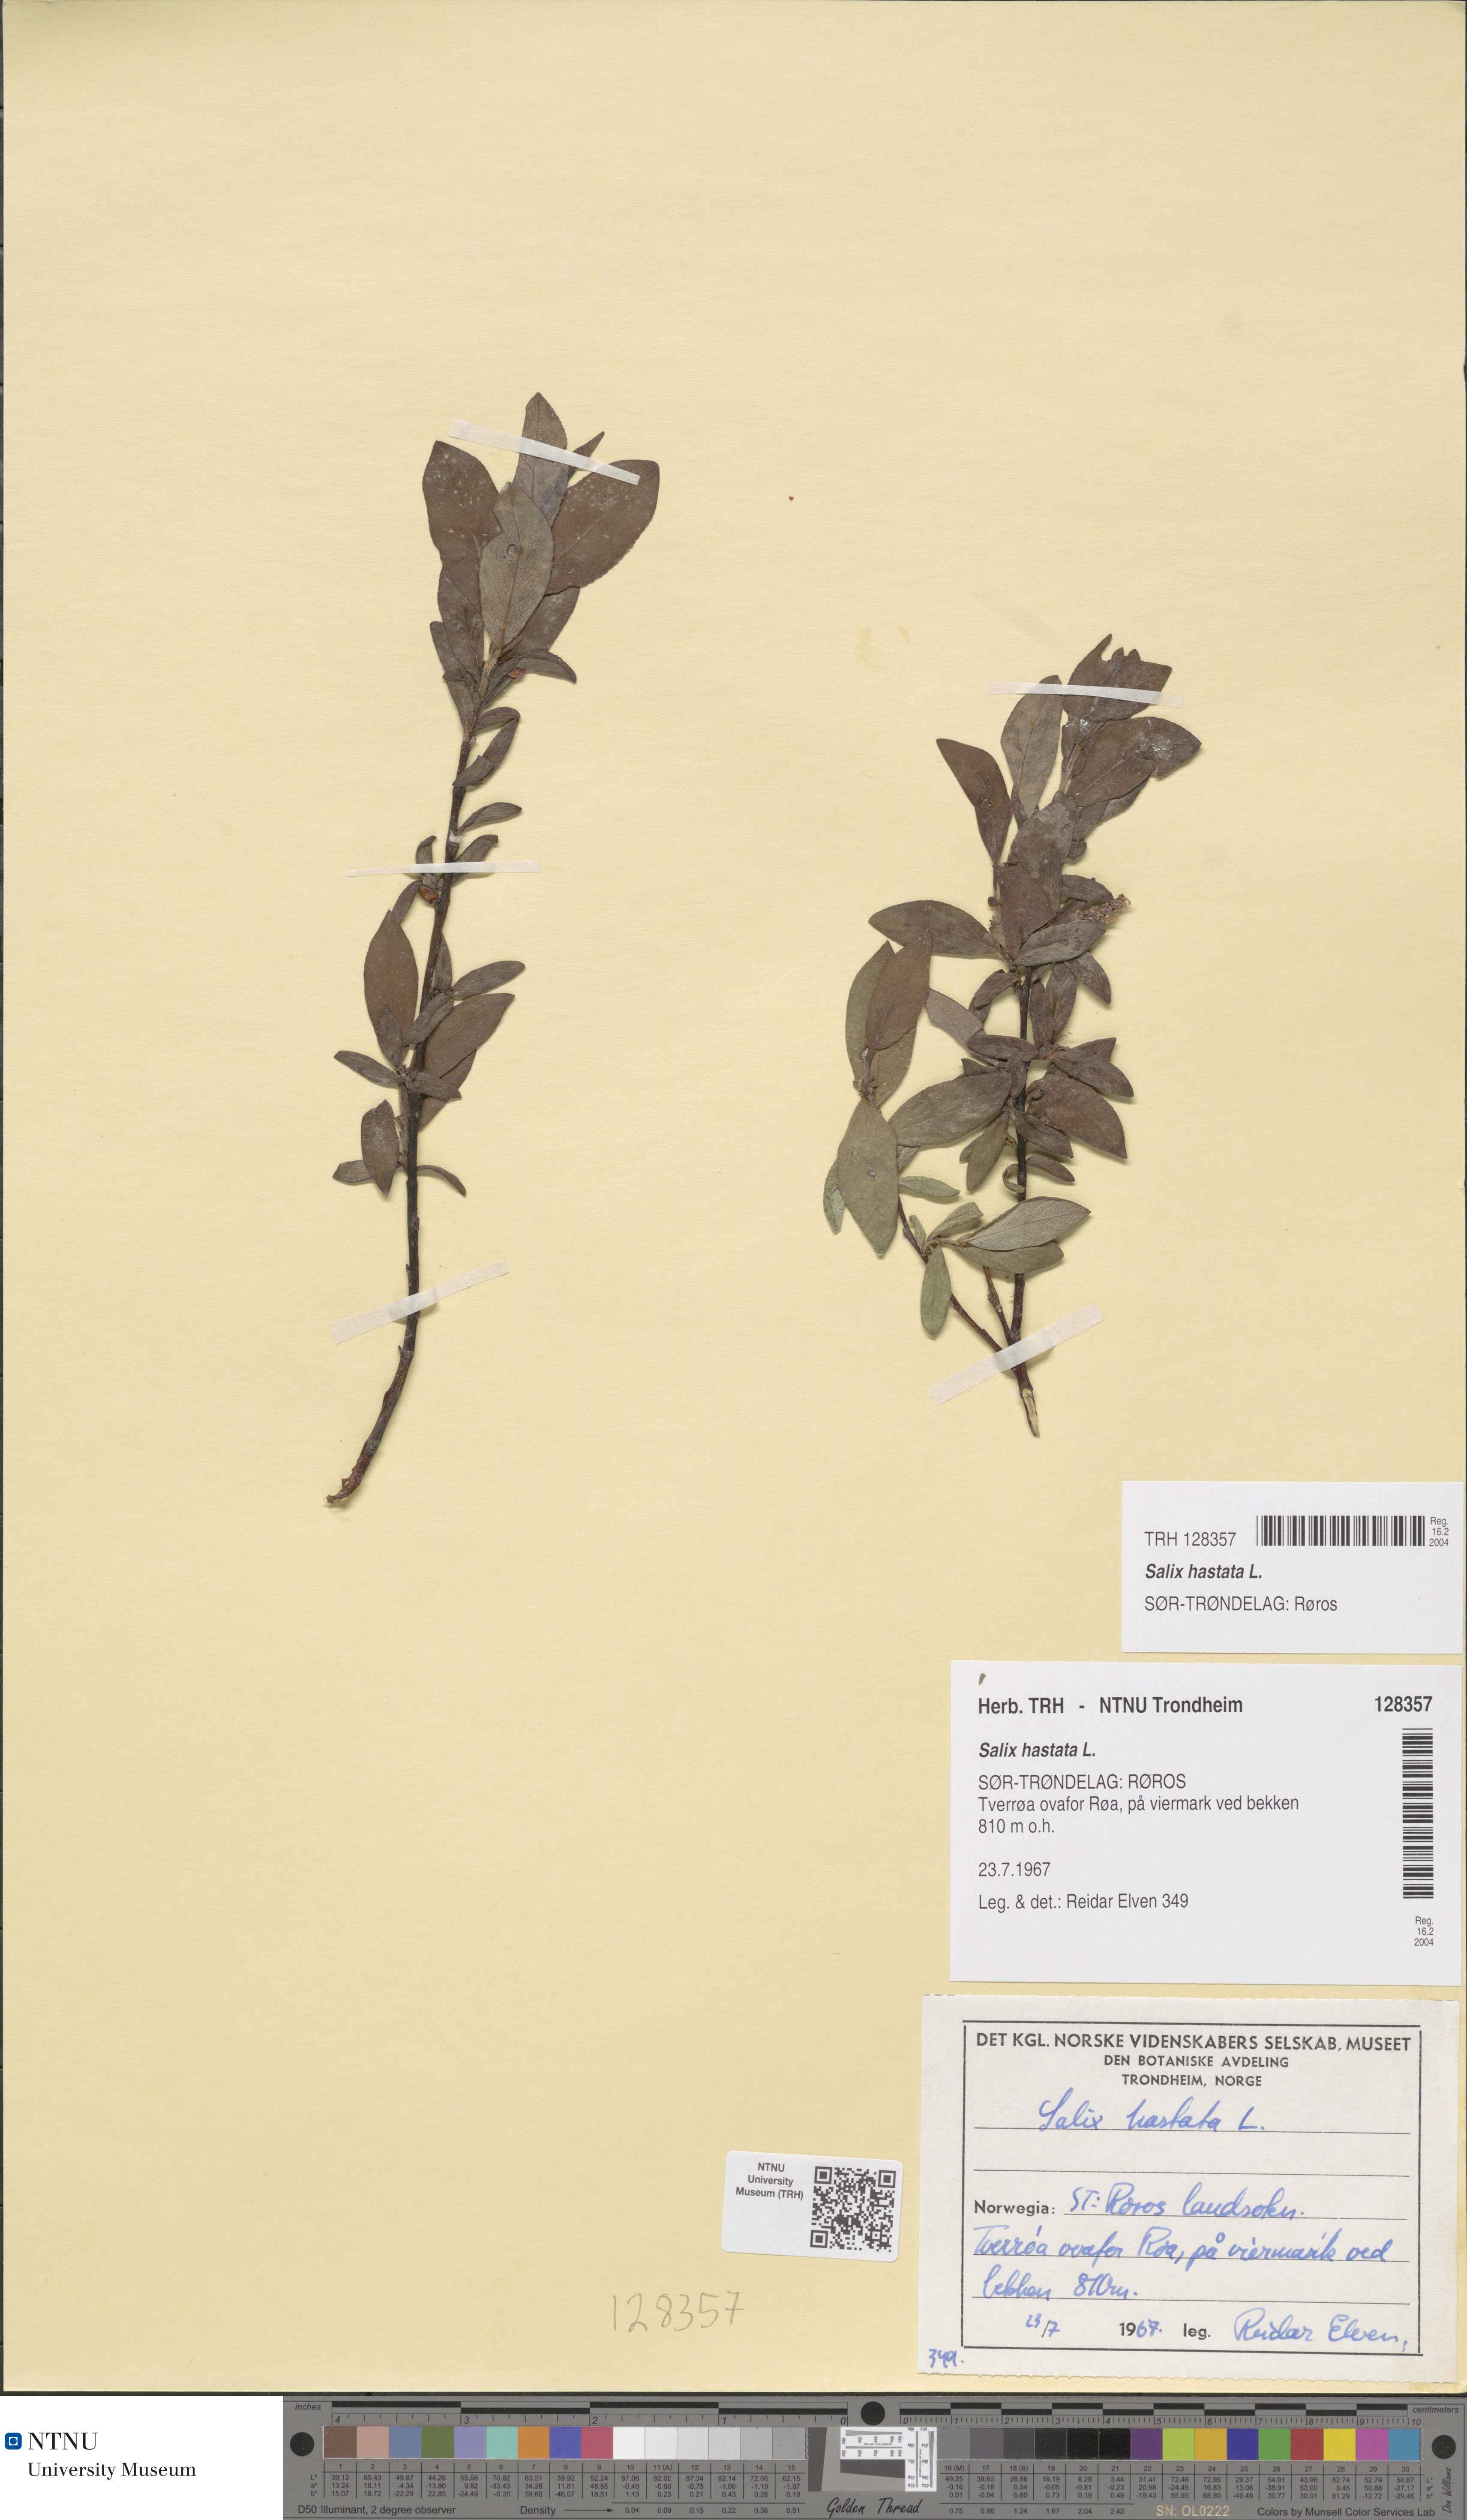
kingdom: Plantae
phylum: Tracheophyta
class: Magnoliopsida
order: Malpighiales
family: Salicaceae
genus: Salix
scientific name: Salix hastata
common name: Halberd willow
